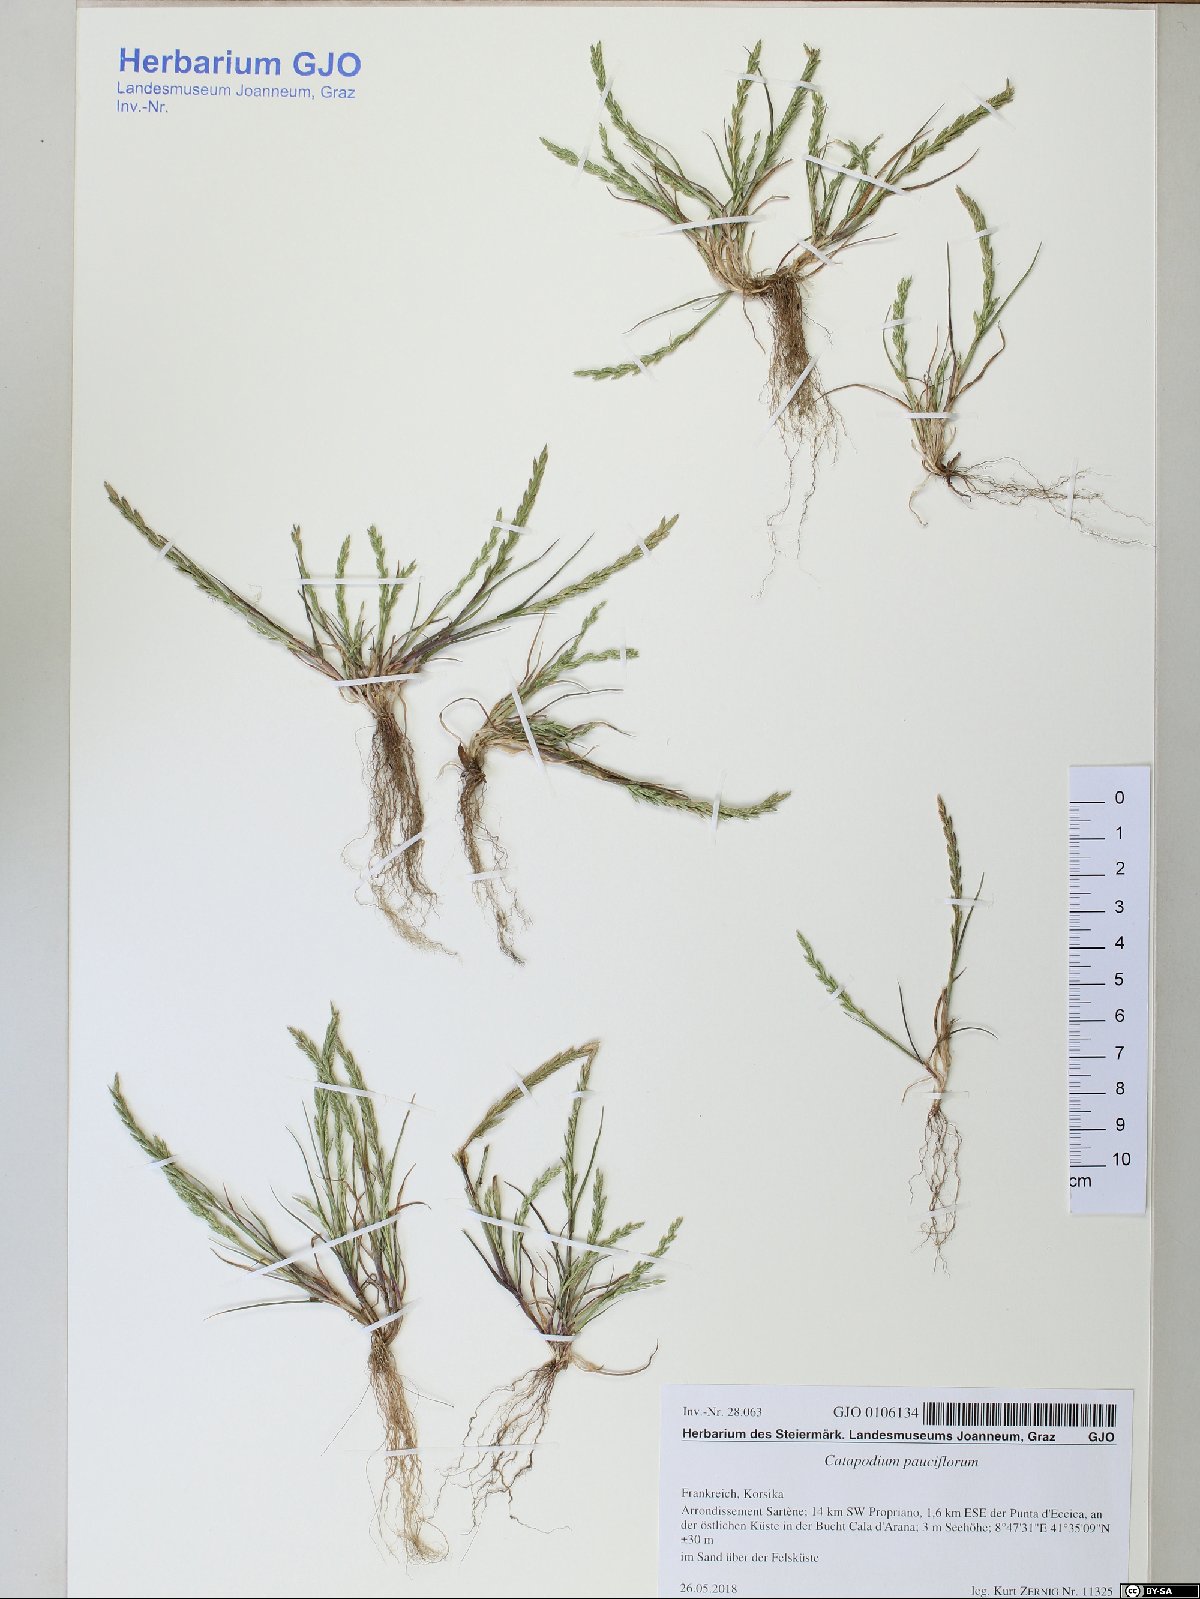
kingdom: Plantae
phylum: Tracheophyta
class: Liliopsida
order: Poales
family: Poaceae
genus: Catapodium
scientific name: Catapodium pauciflorum
